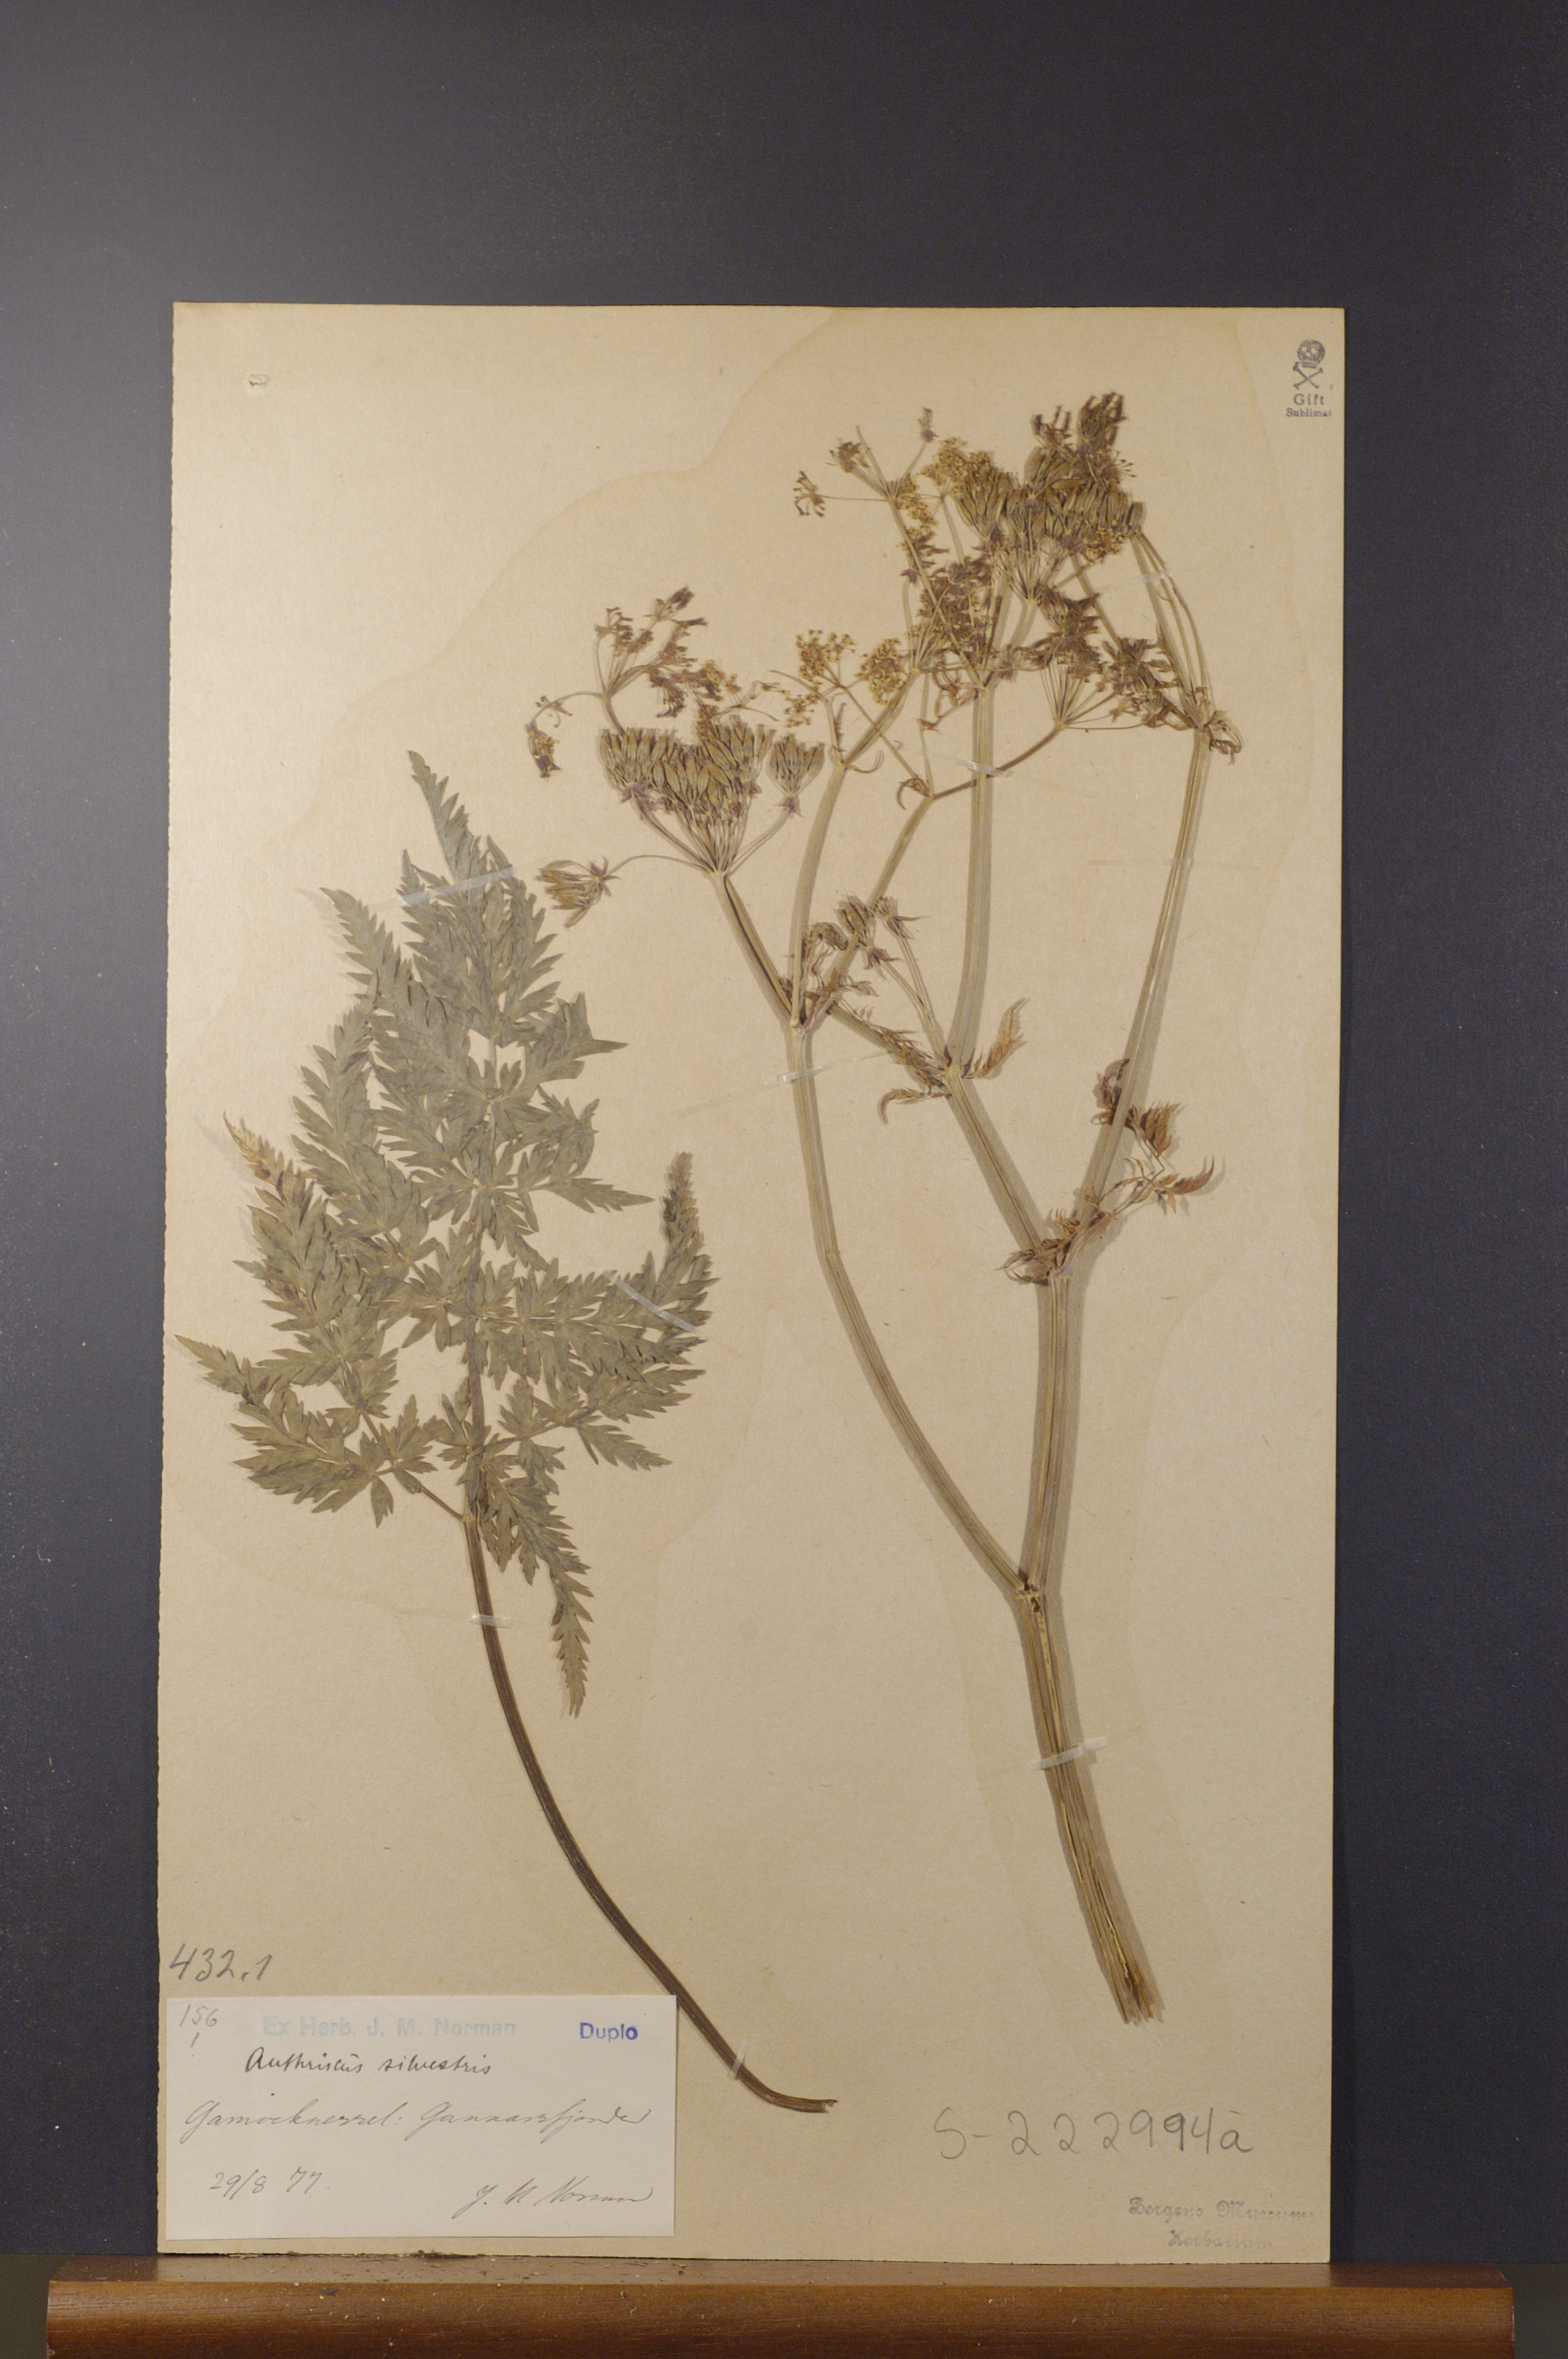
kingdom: Plantae
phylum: Tracheophyta
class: Magnoliopsida
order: Apiales
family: Apiaceae
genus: Anthriscus
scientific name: Anthriscus sylvestris
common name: Cow parsley
